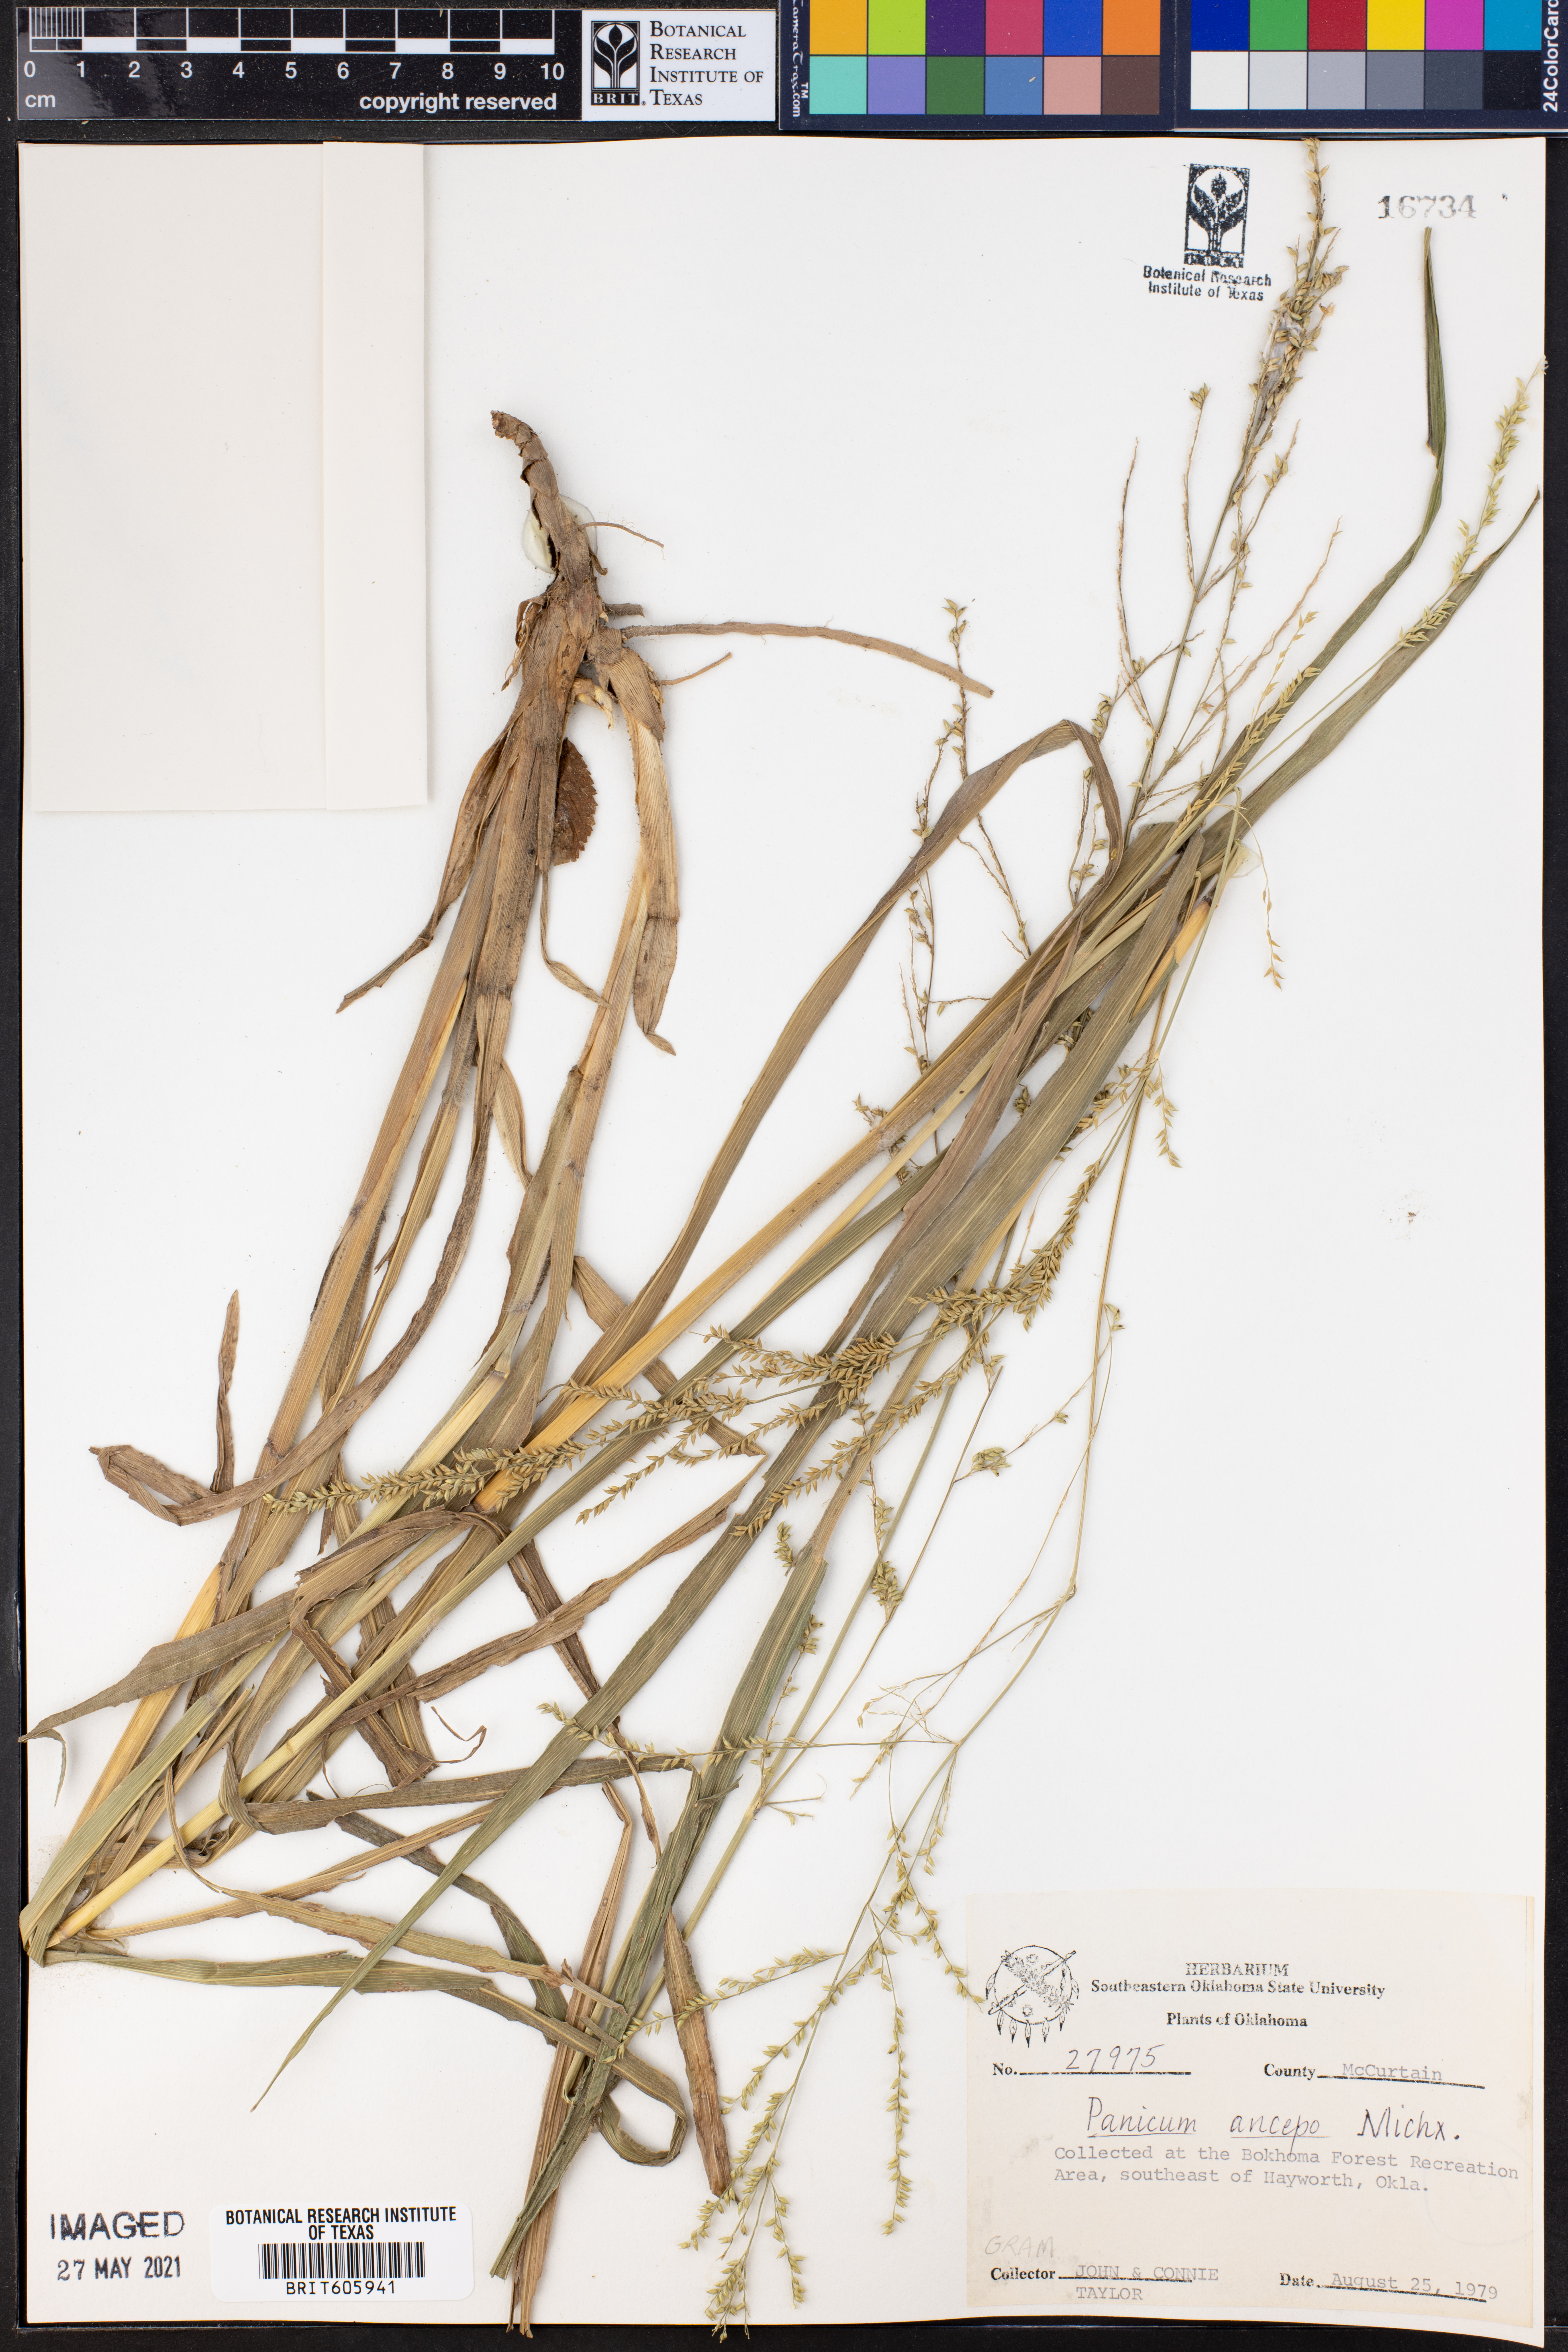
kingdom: Plantae
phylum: Tracheophyta
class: Liliopsida
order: Poales
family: Poaceae
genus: Coleataenia
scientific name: Coleataenia anceps
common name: Beaked panic grass
